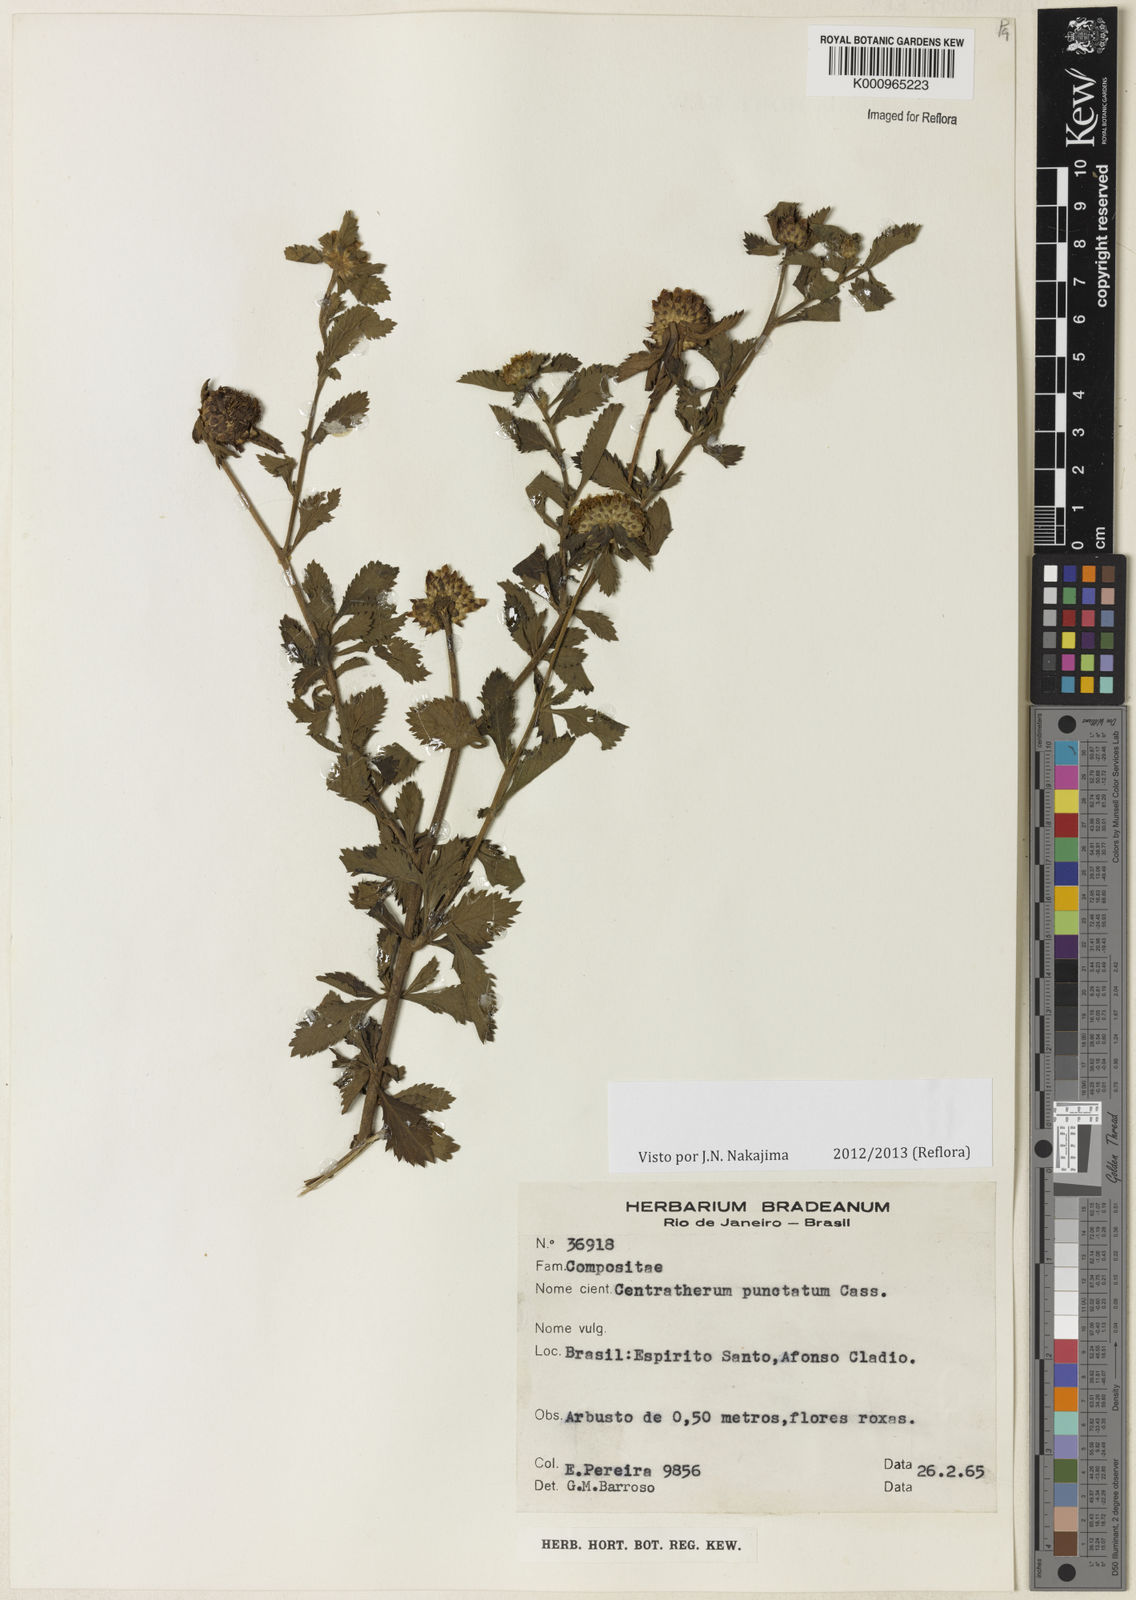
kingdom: Plantae
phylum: Tracheophyta
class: Magnoliopsida
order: Asterales
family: Asteraceae
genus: Centratherum
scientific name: Centratherum punctatum
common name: Larkdaisy
